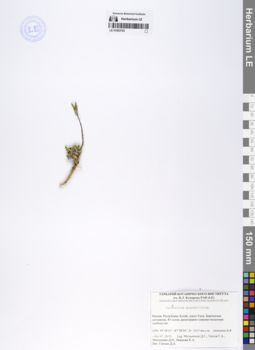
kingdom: Plantae
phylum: Tracheophyta
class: Magnoliopsida
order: Brassicales
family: Brassicaceae
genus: Pachyneurum
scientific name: Pachyneurum grandiflorum
